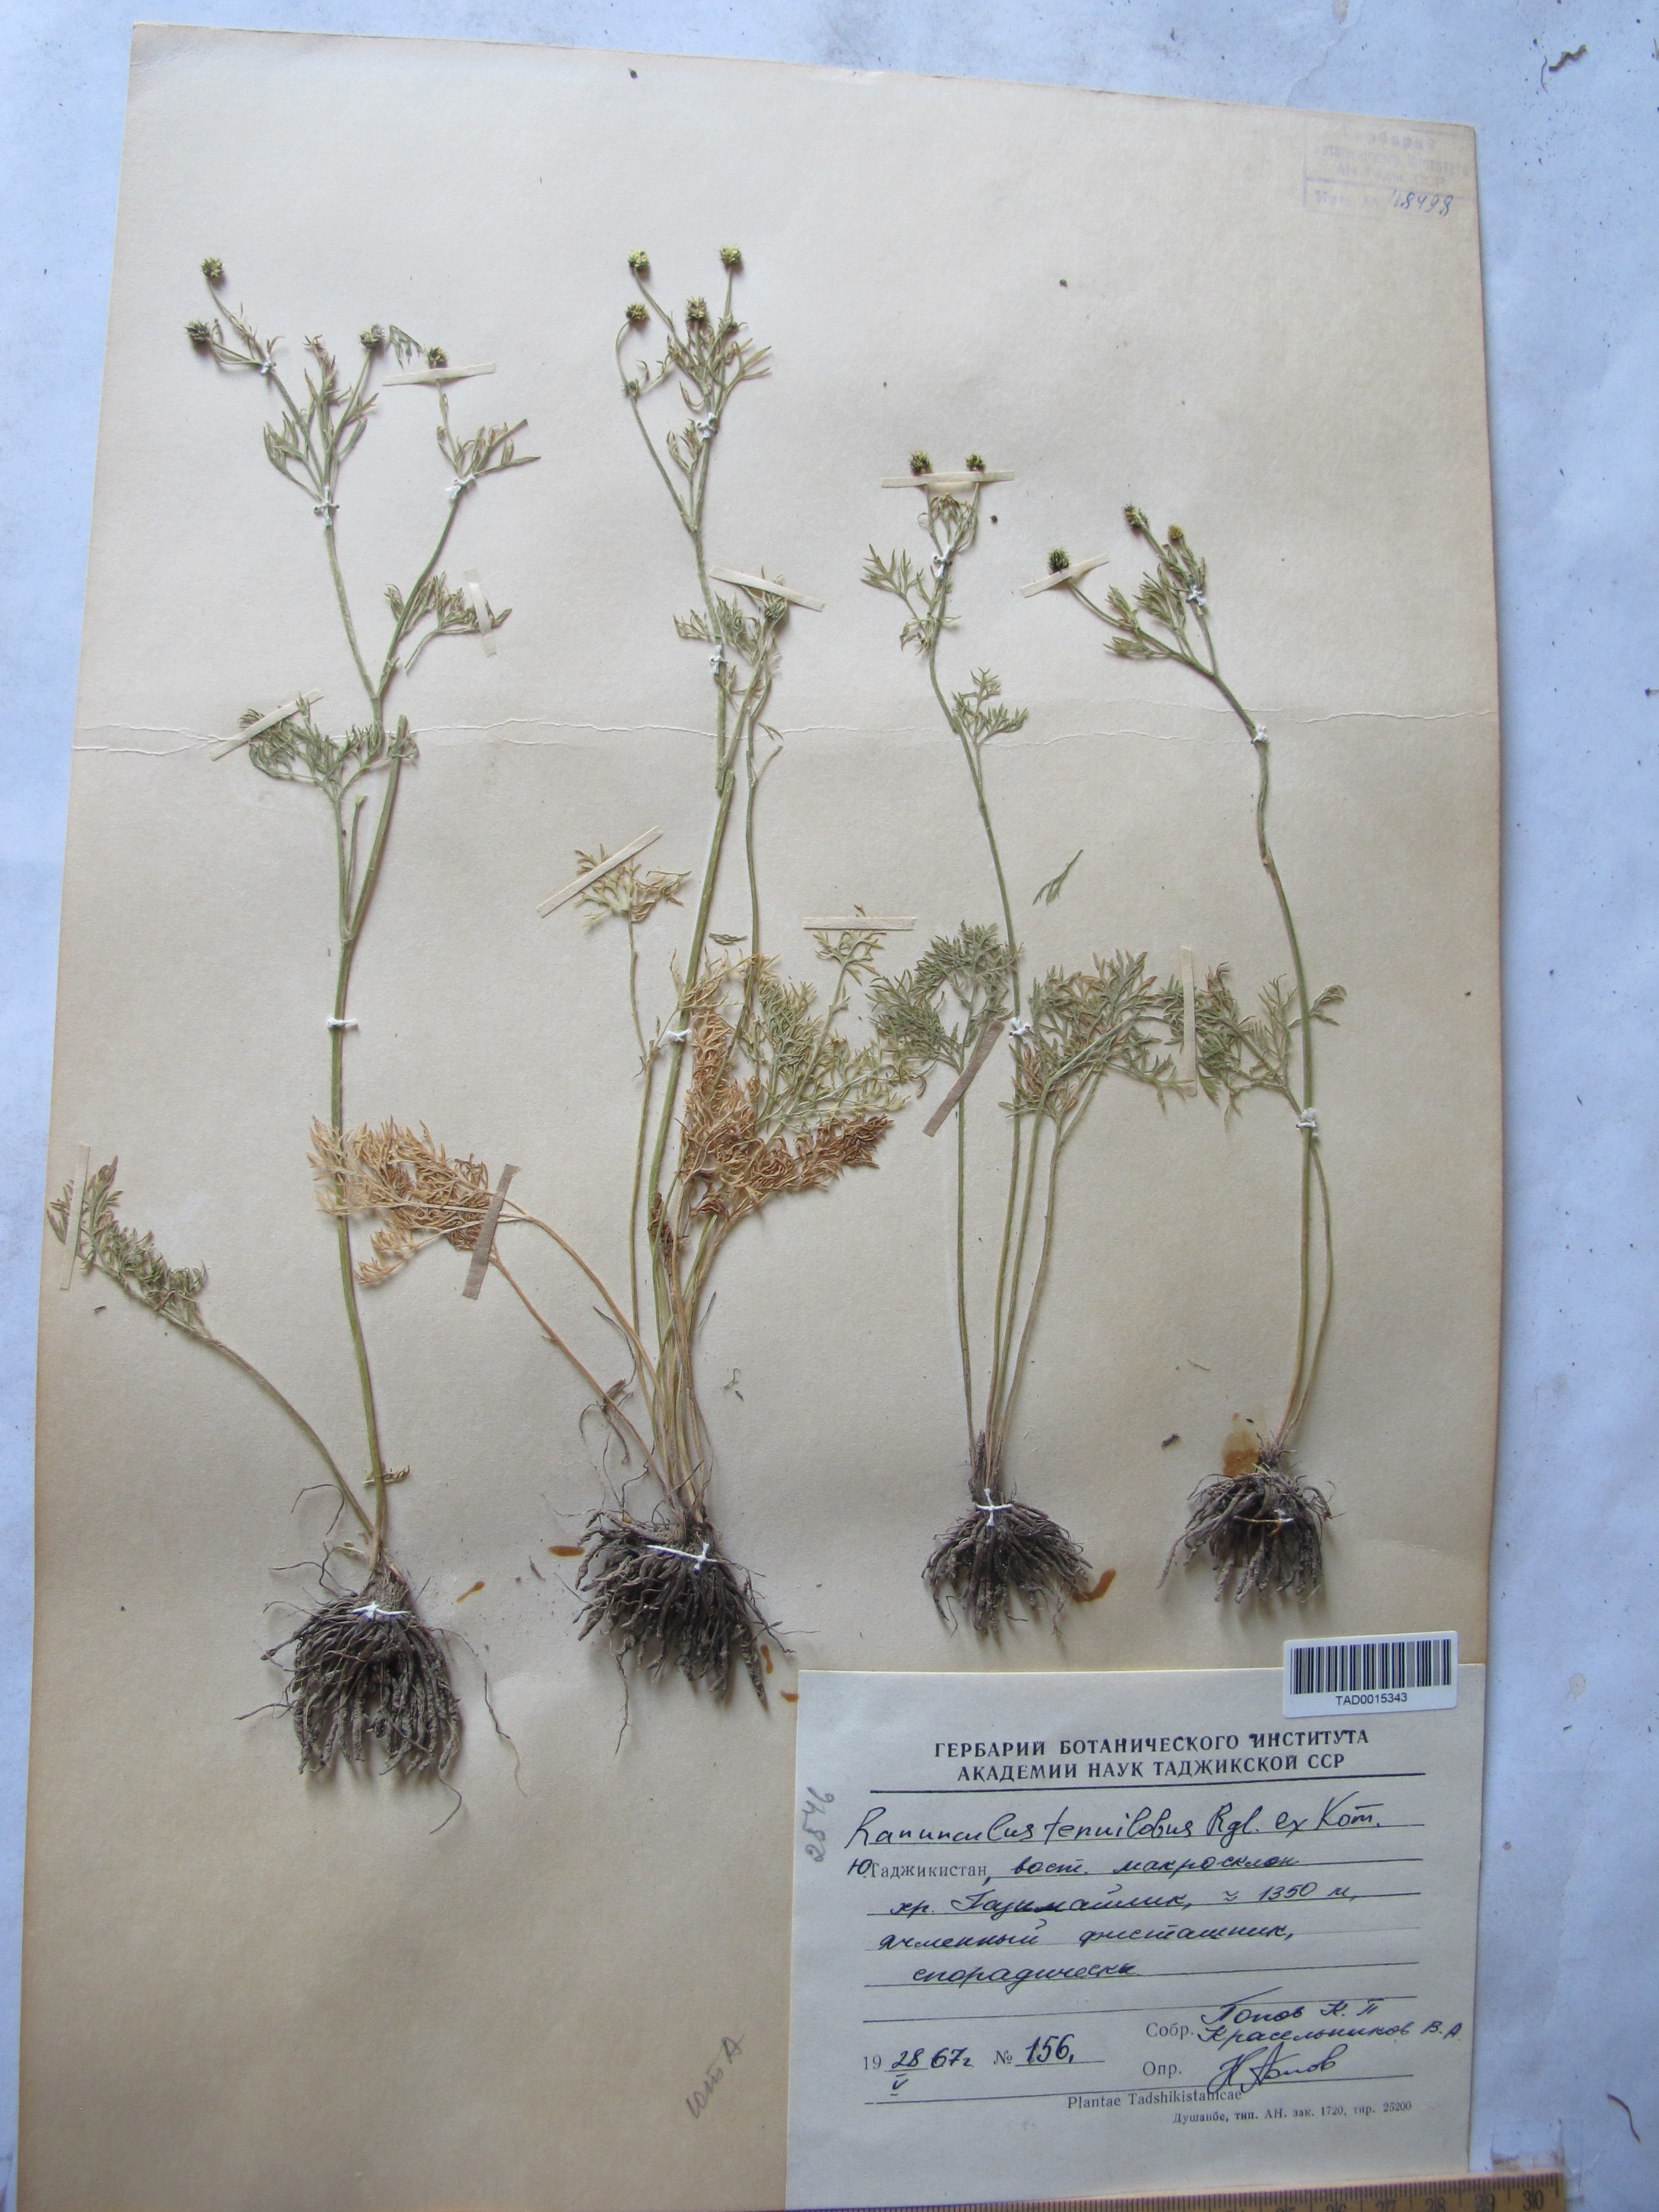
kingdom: Plantae
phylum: Tracheophyta
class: Magnoliopsida
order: Ranunculales
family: Ranunculaceae
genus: Ranunculus
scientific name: Ranunculus tenuilobus
